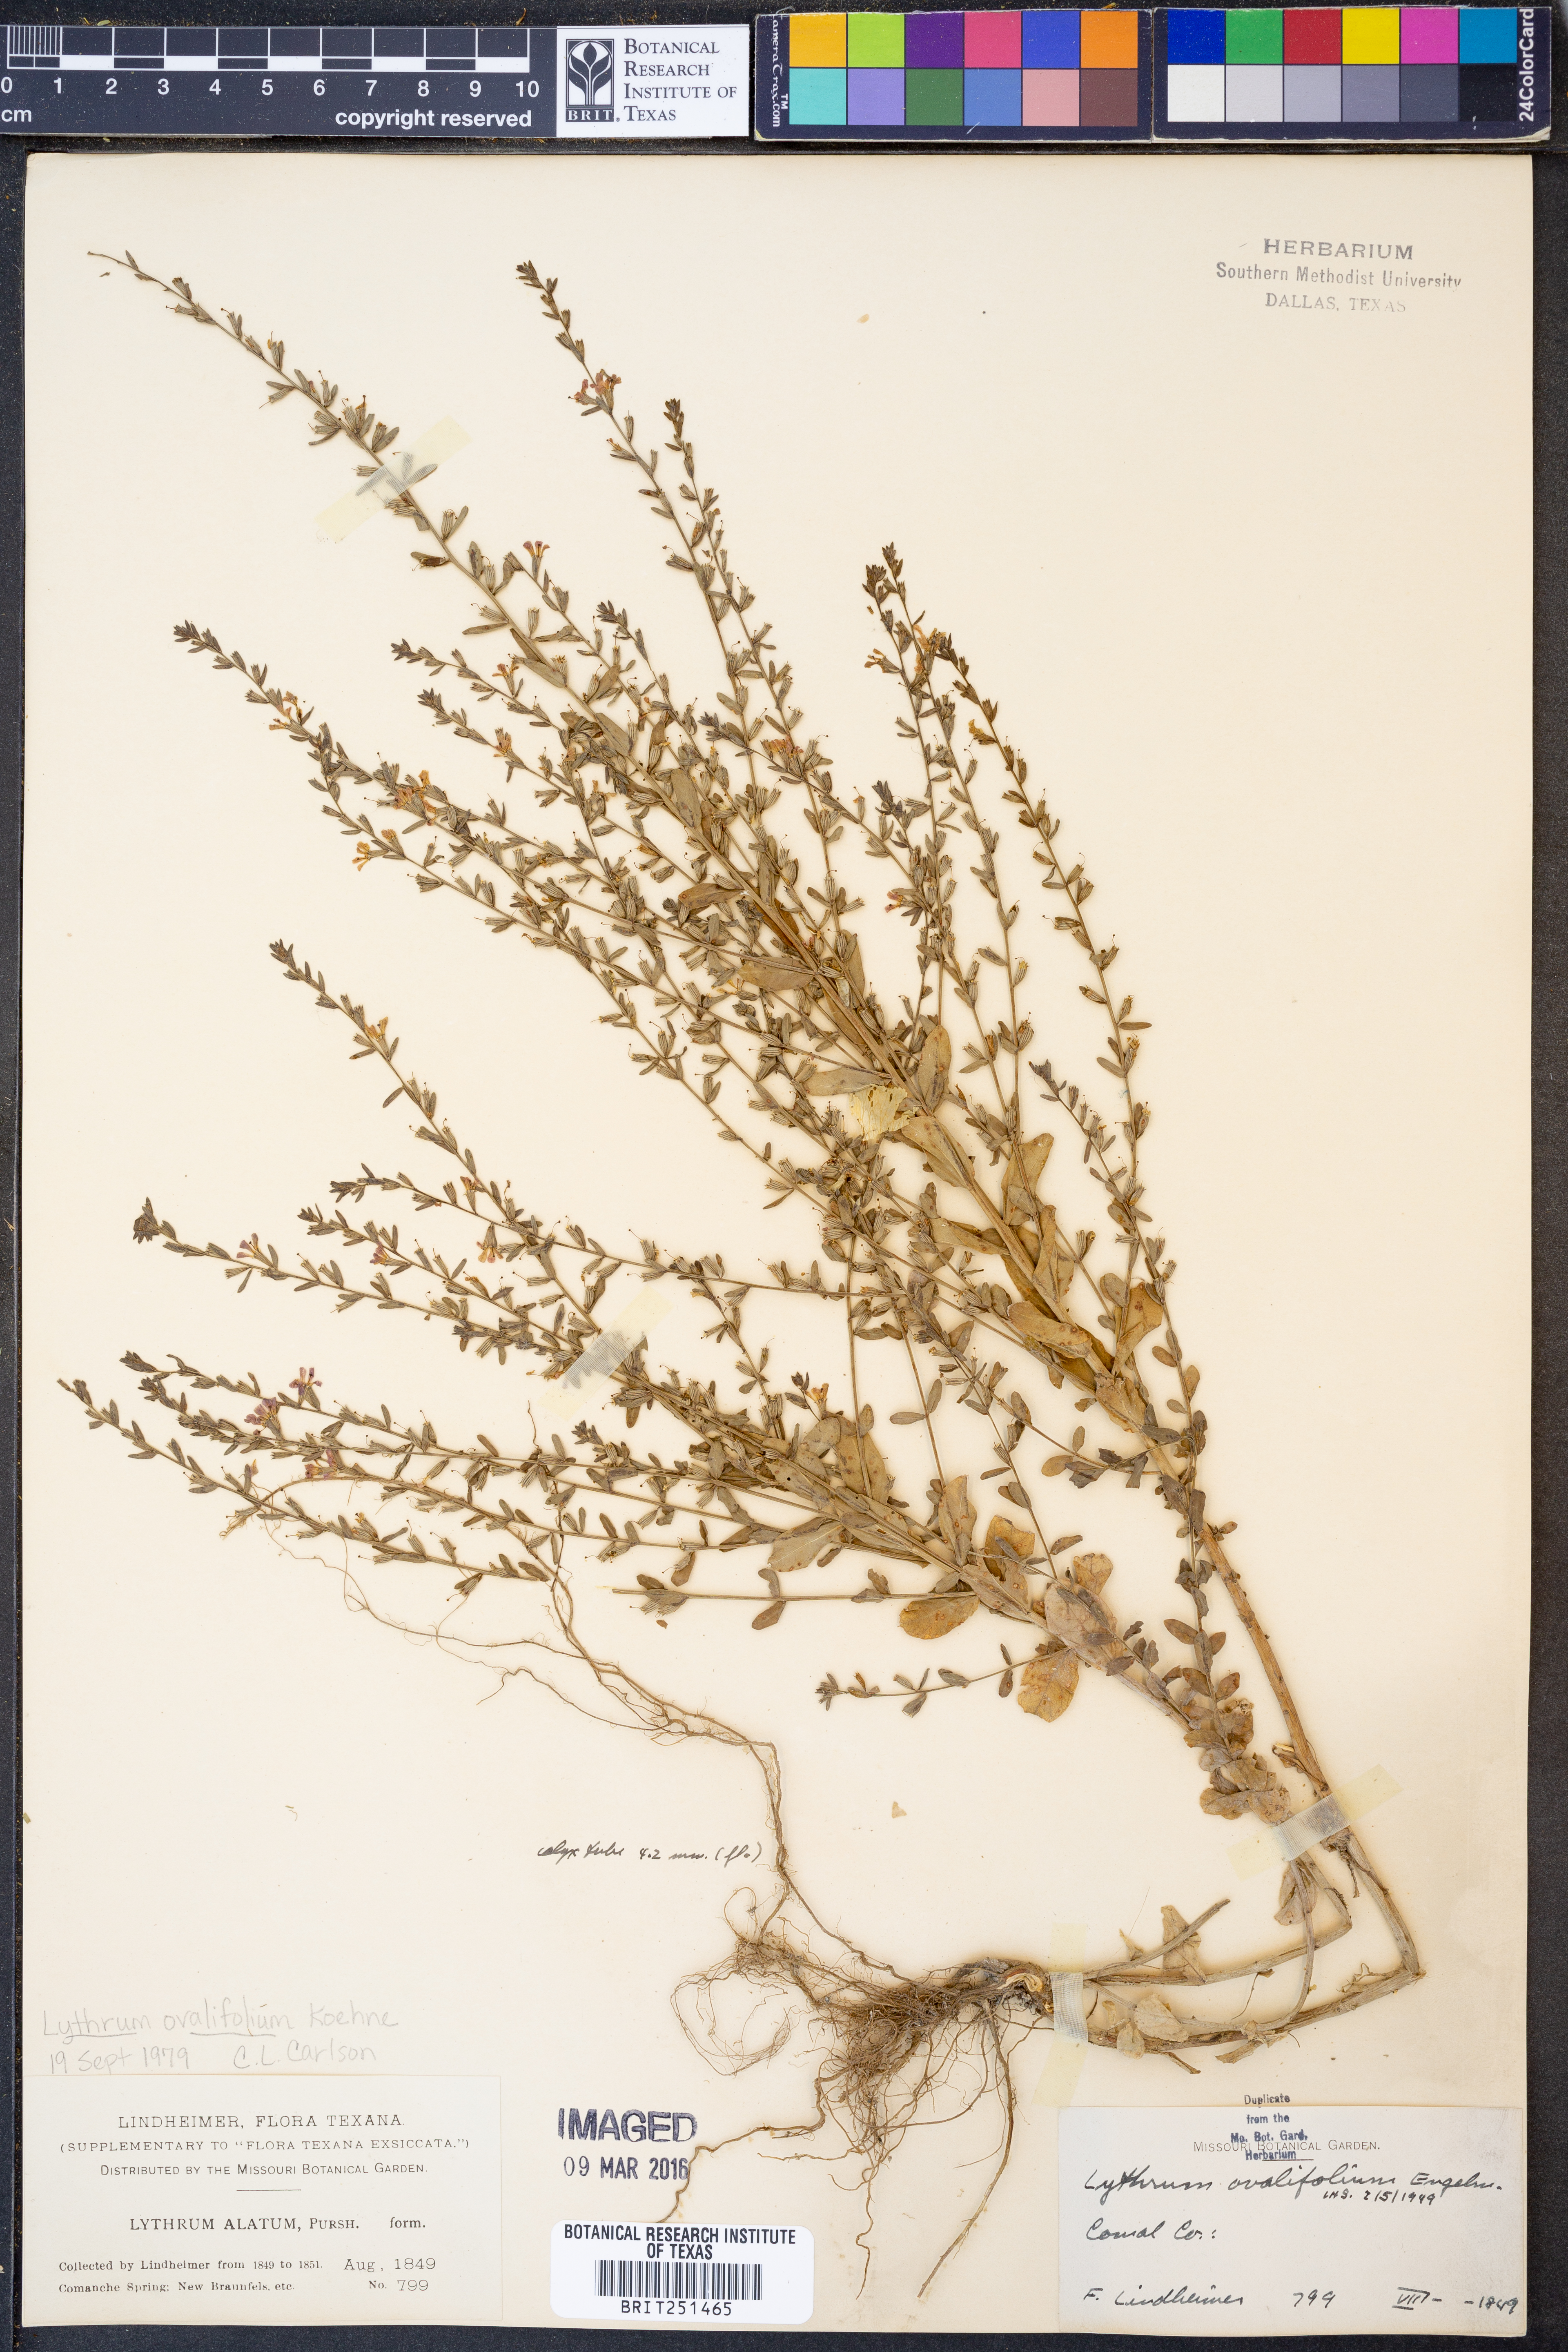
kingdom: Plantae
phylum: Tracheophyta
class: Magnoliopsida
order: Myrtales
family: Lythraceae
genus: Lythrum
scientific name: Lythrum ovalifolium
